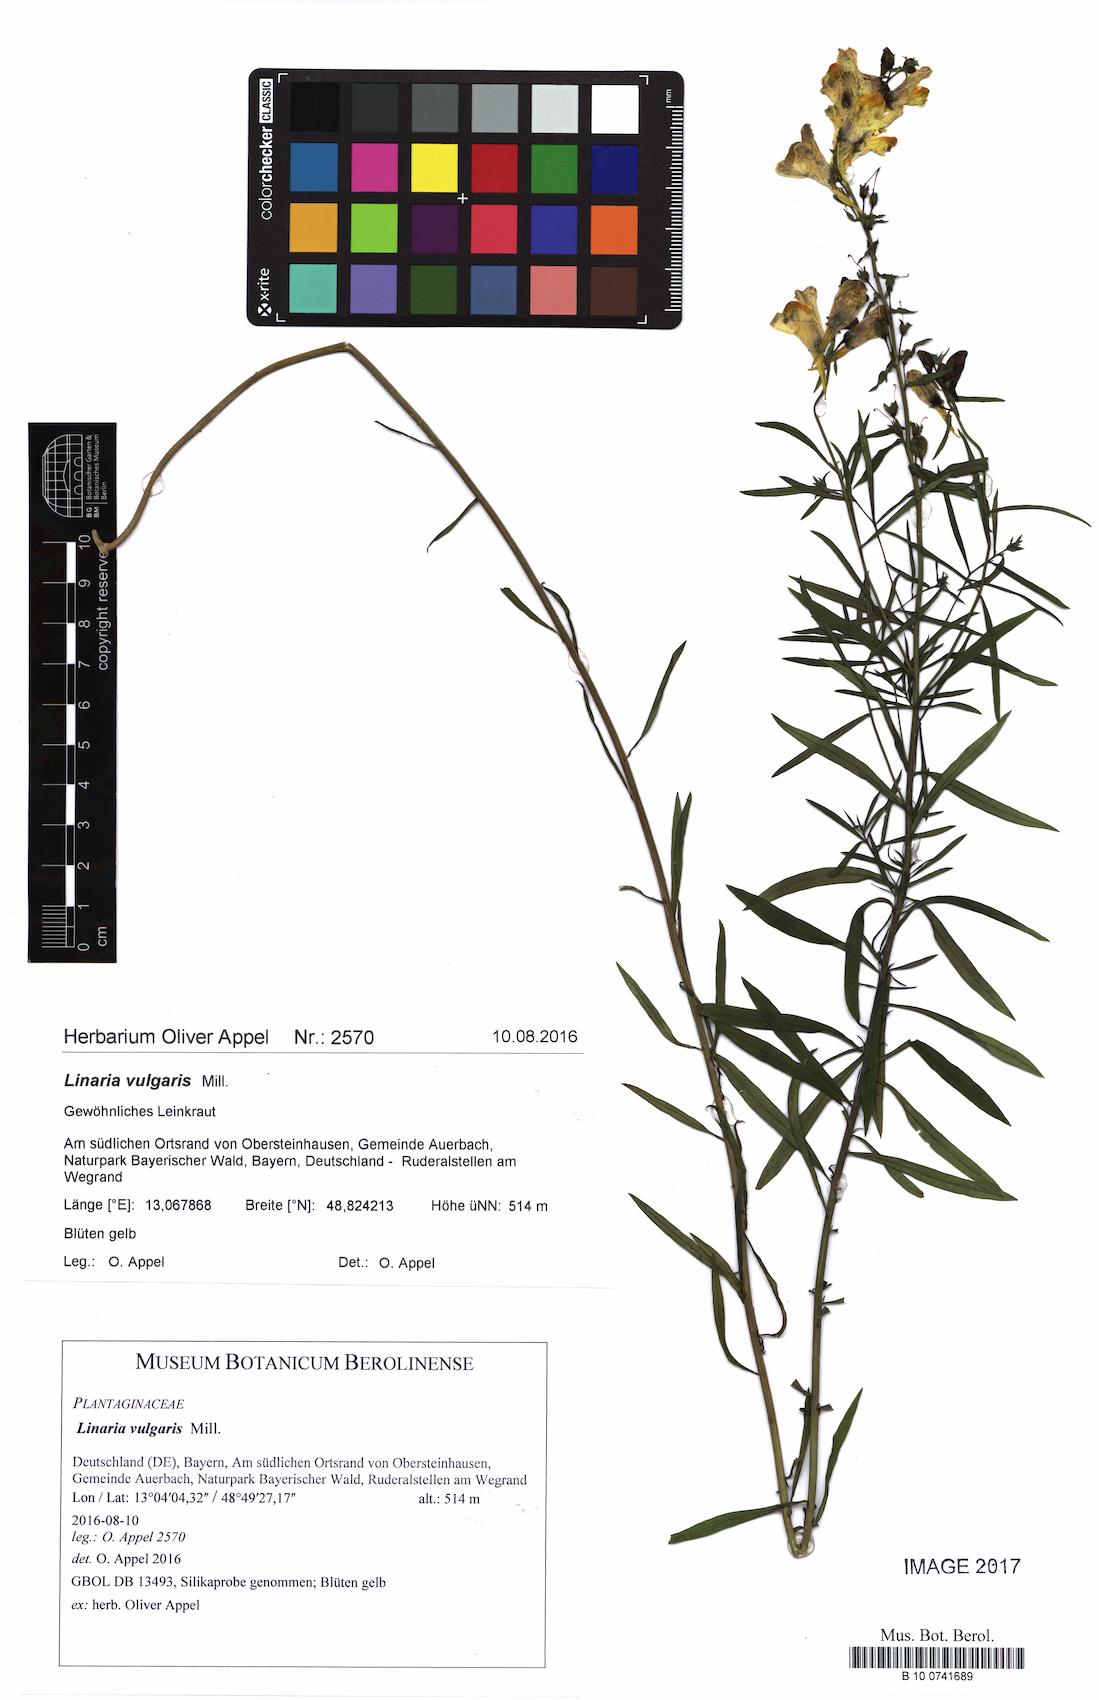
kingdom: Plantae
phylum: Tracheophyta
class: Magnoliopsida
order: Lamiales
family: Plantaginaceae
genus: Linaria
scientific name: Linaria vulgaris
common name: Butter and eggs
